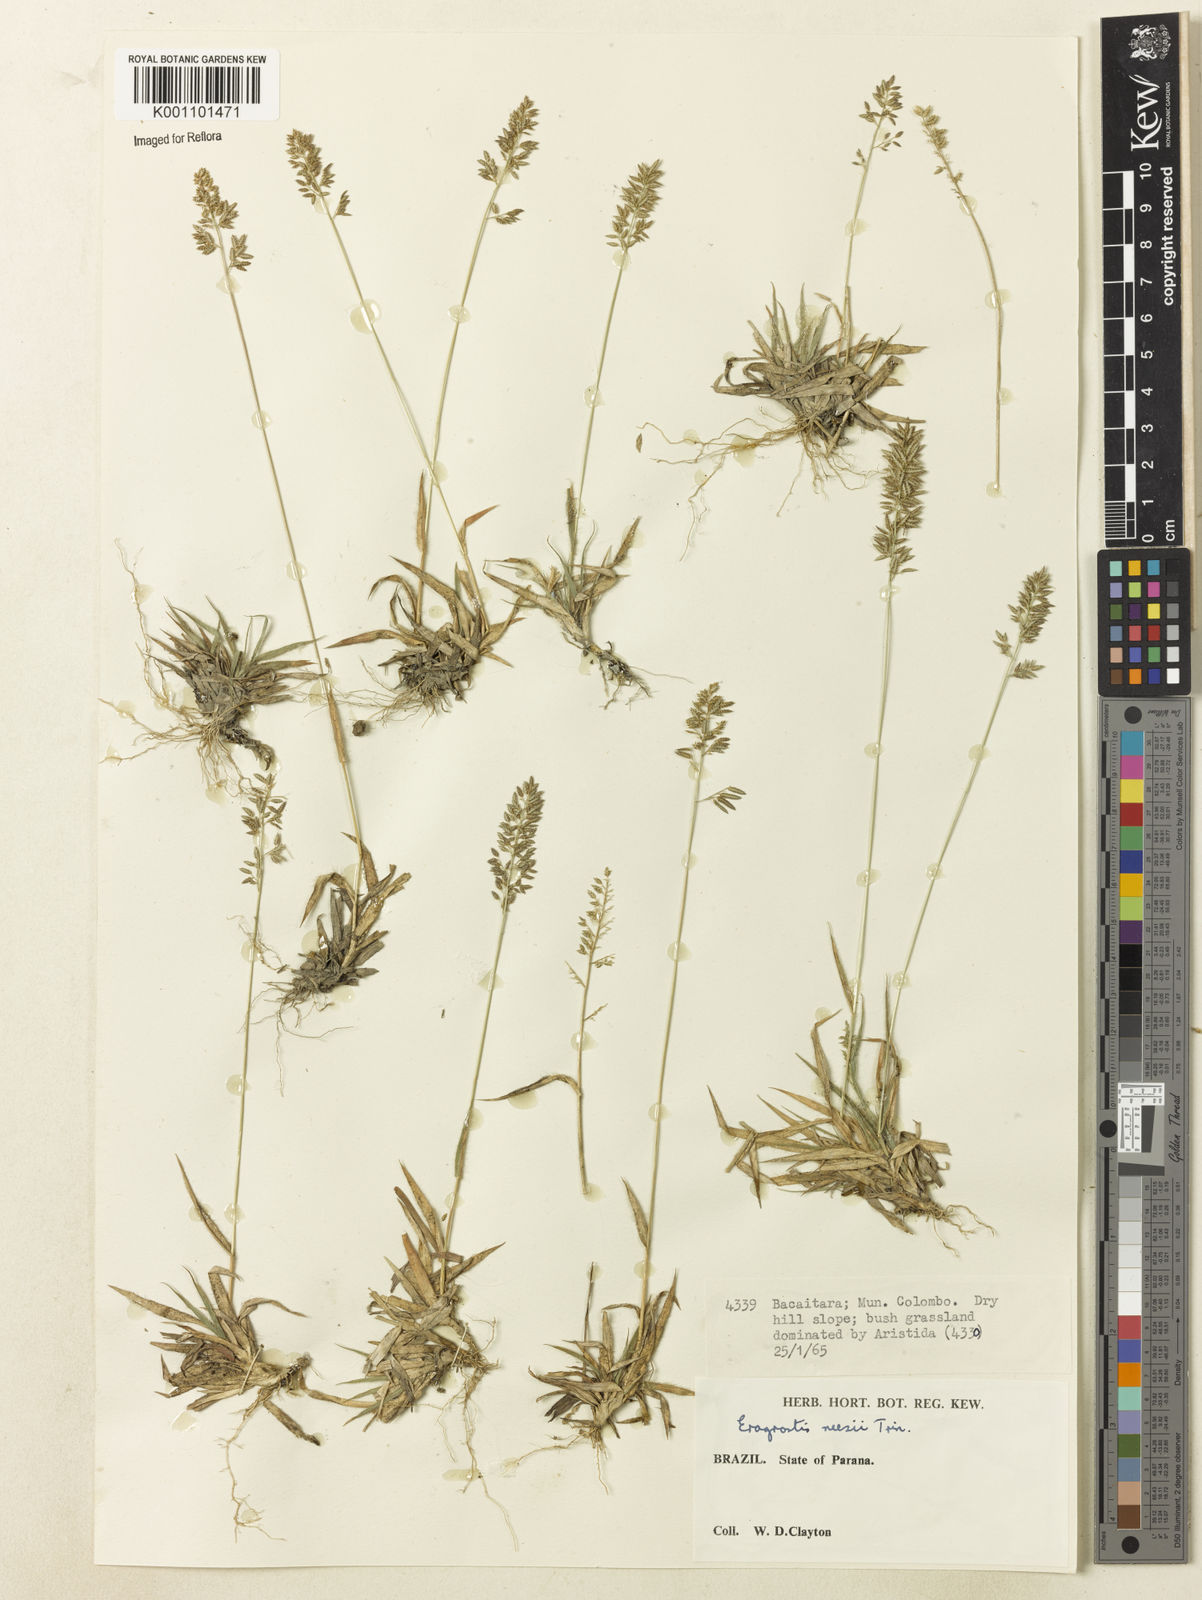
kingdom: Plantae
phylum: Tracheophyta
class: Liliopsida
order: Poales
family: Poaceae
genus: Eragrostis
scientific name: Eragrostis neesii
